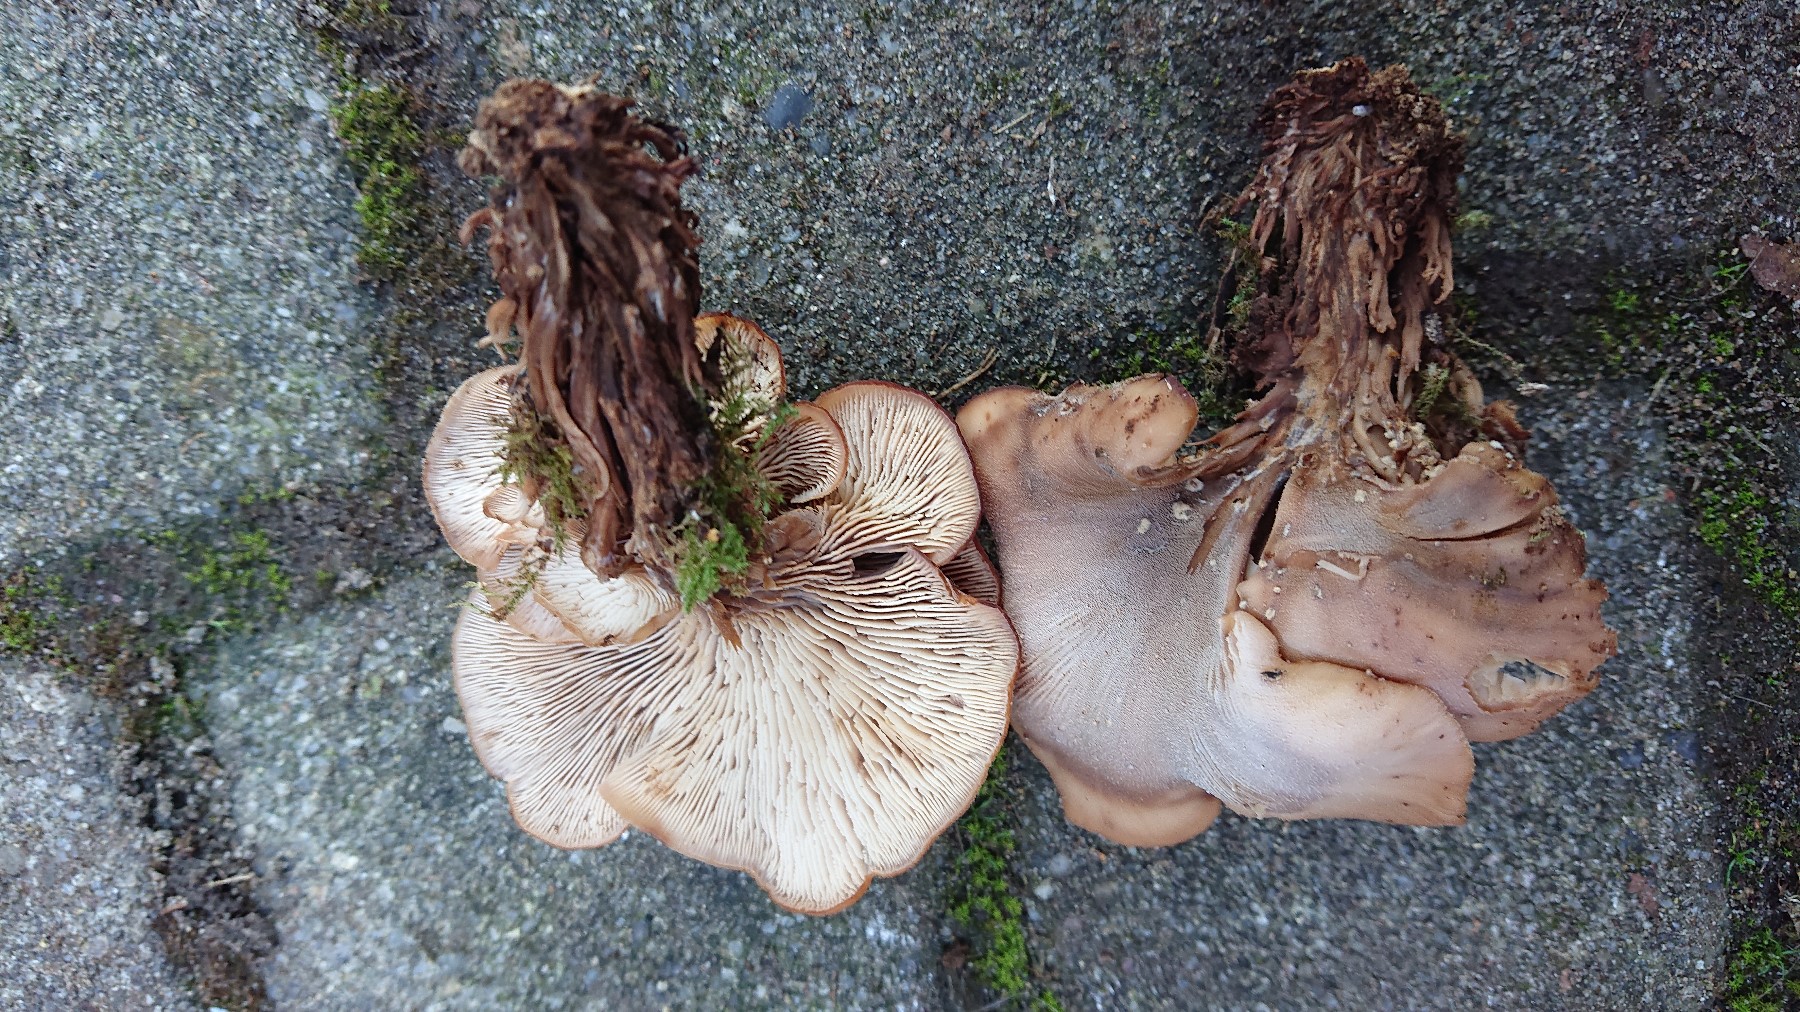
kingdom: Fungi
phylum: Basidiomycota
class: Agaricomycetes
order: Russulales
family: Auriscalpiaceae
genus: Lentinellus
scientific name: Lentinellus cochleatus
